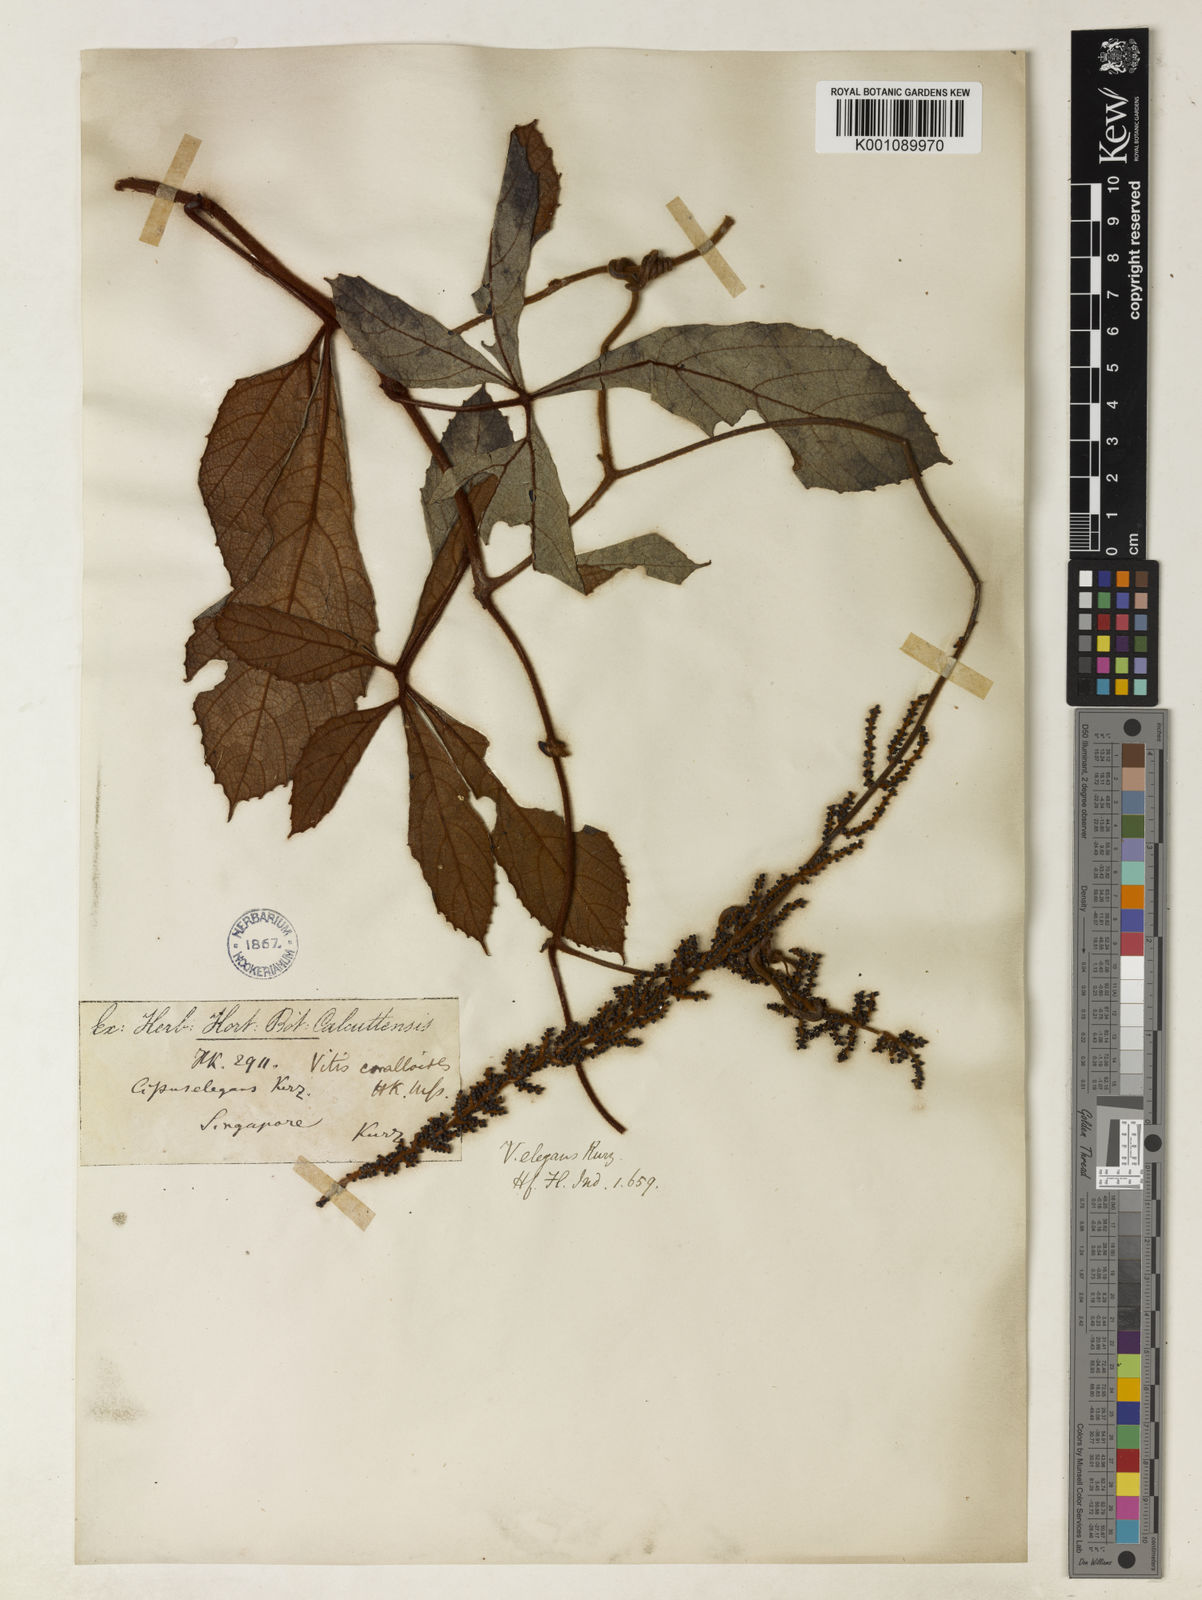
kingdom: Plantae
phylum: Tracheophyta
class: Magnoliopsida
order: Vitales
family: Vitaceae
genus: Ampelocissus
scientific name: Ampelocissus elegans
